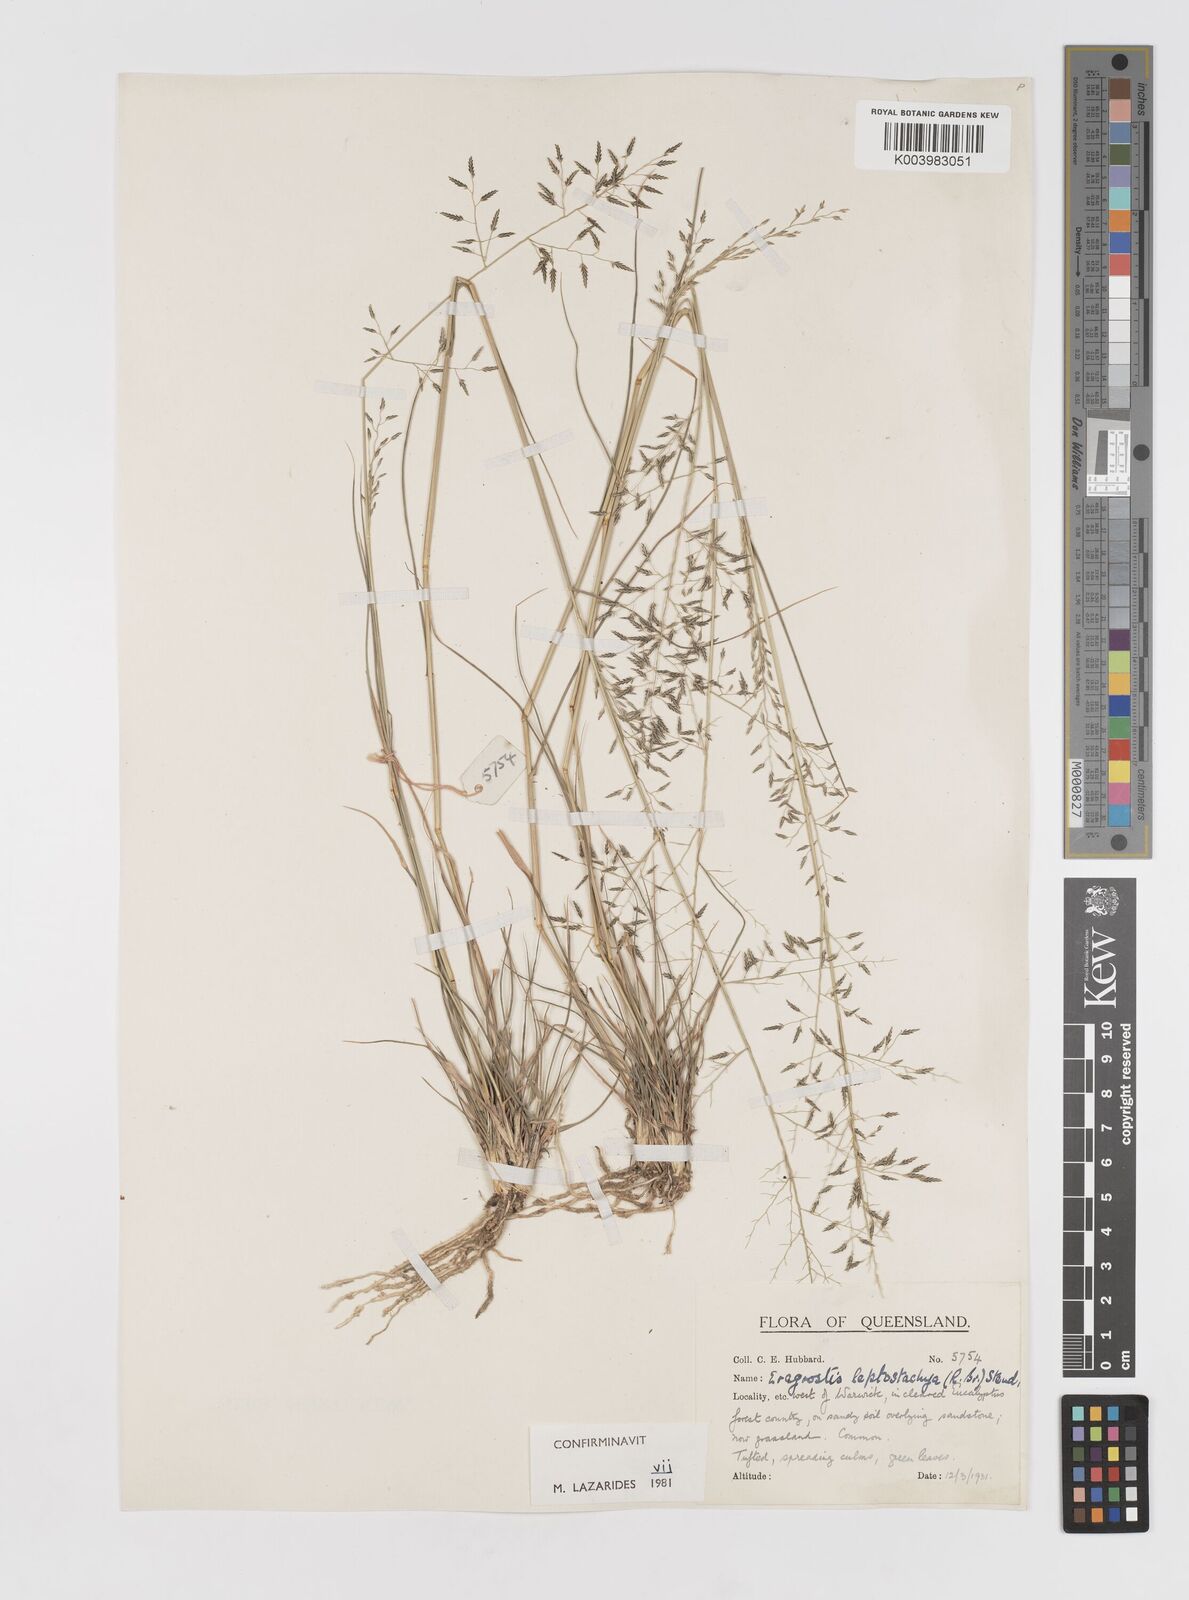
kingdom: Plantae
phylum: Tracheophyta
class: Liliopsida
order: Poales
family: Poaceae
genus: Eragrostis
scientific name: Eragrostis leptostachya
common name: Australian lovegrass
